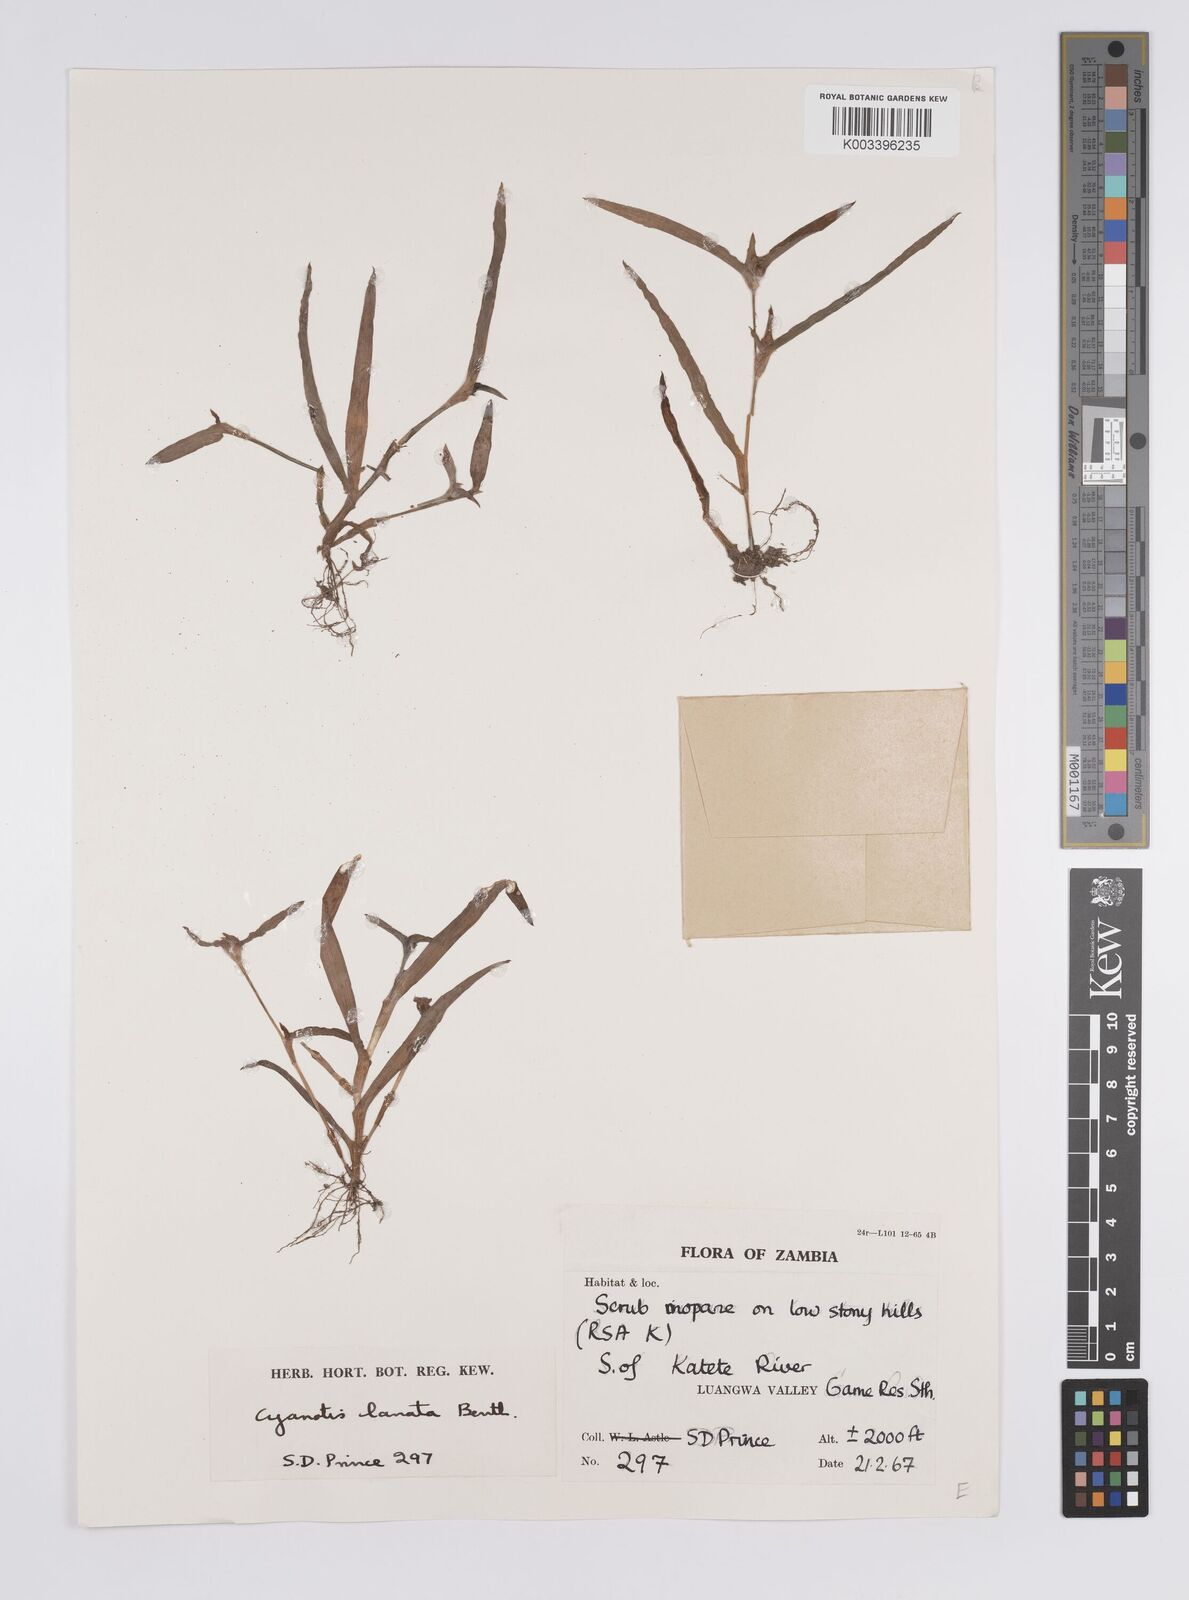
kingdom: Plantae
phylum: Tracheophyta
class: Liliopsida
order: Commelinales
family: Commelinaceae
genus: Cyanotis
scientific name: Cyanotis lanata
